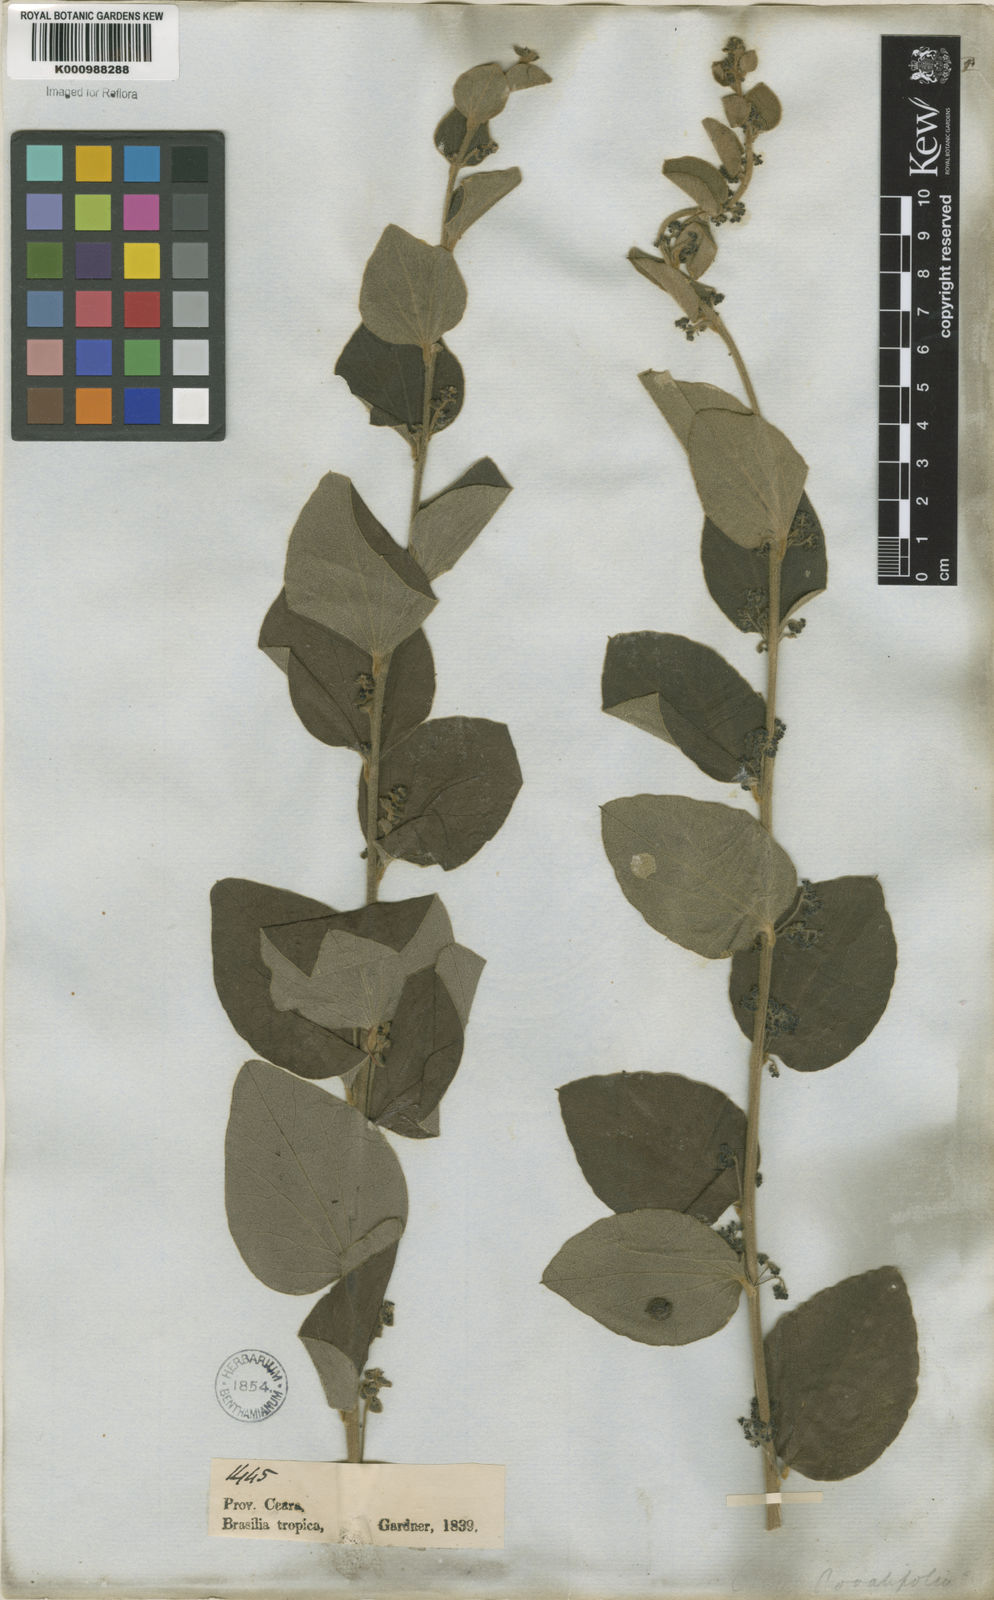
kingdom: Plantae
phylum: Tracheophyta
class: Magnoliopsida
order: Ranunculales
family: Menispermaceae
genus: Cissampelos
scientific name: Cissampelos ovalifolia
